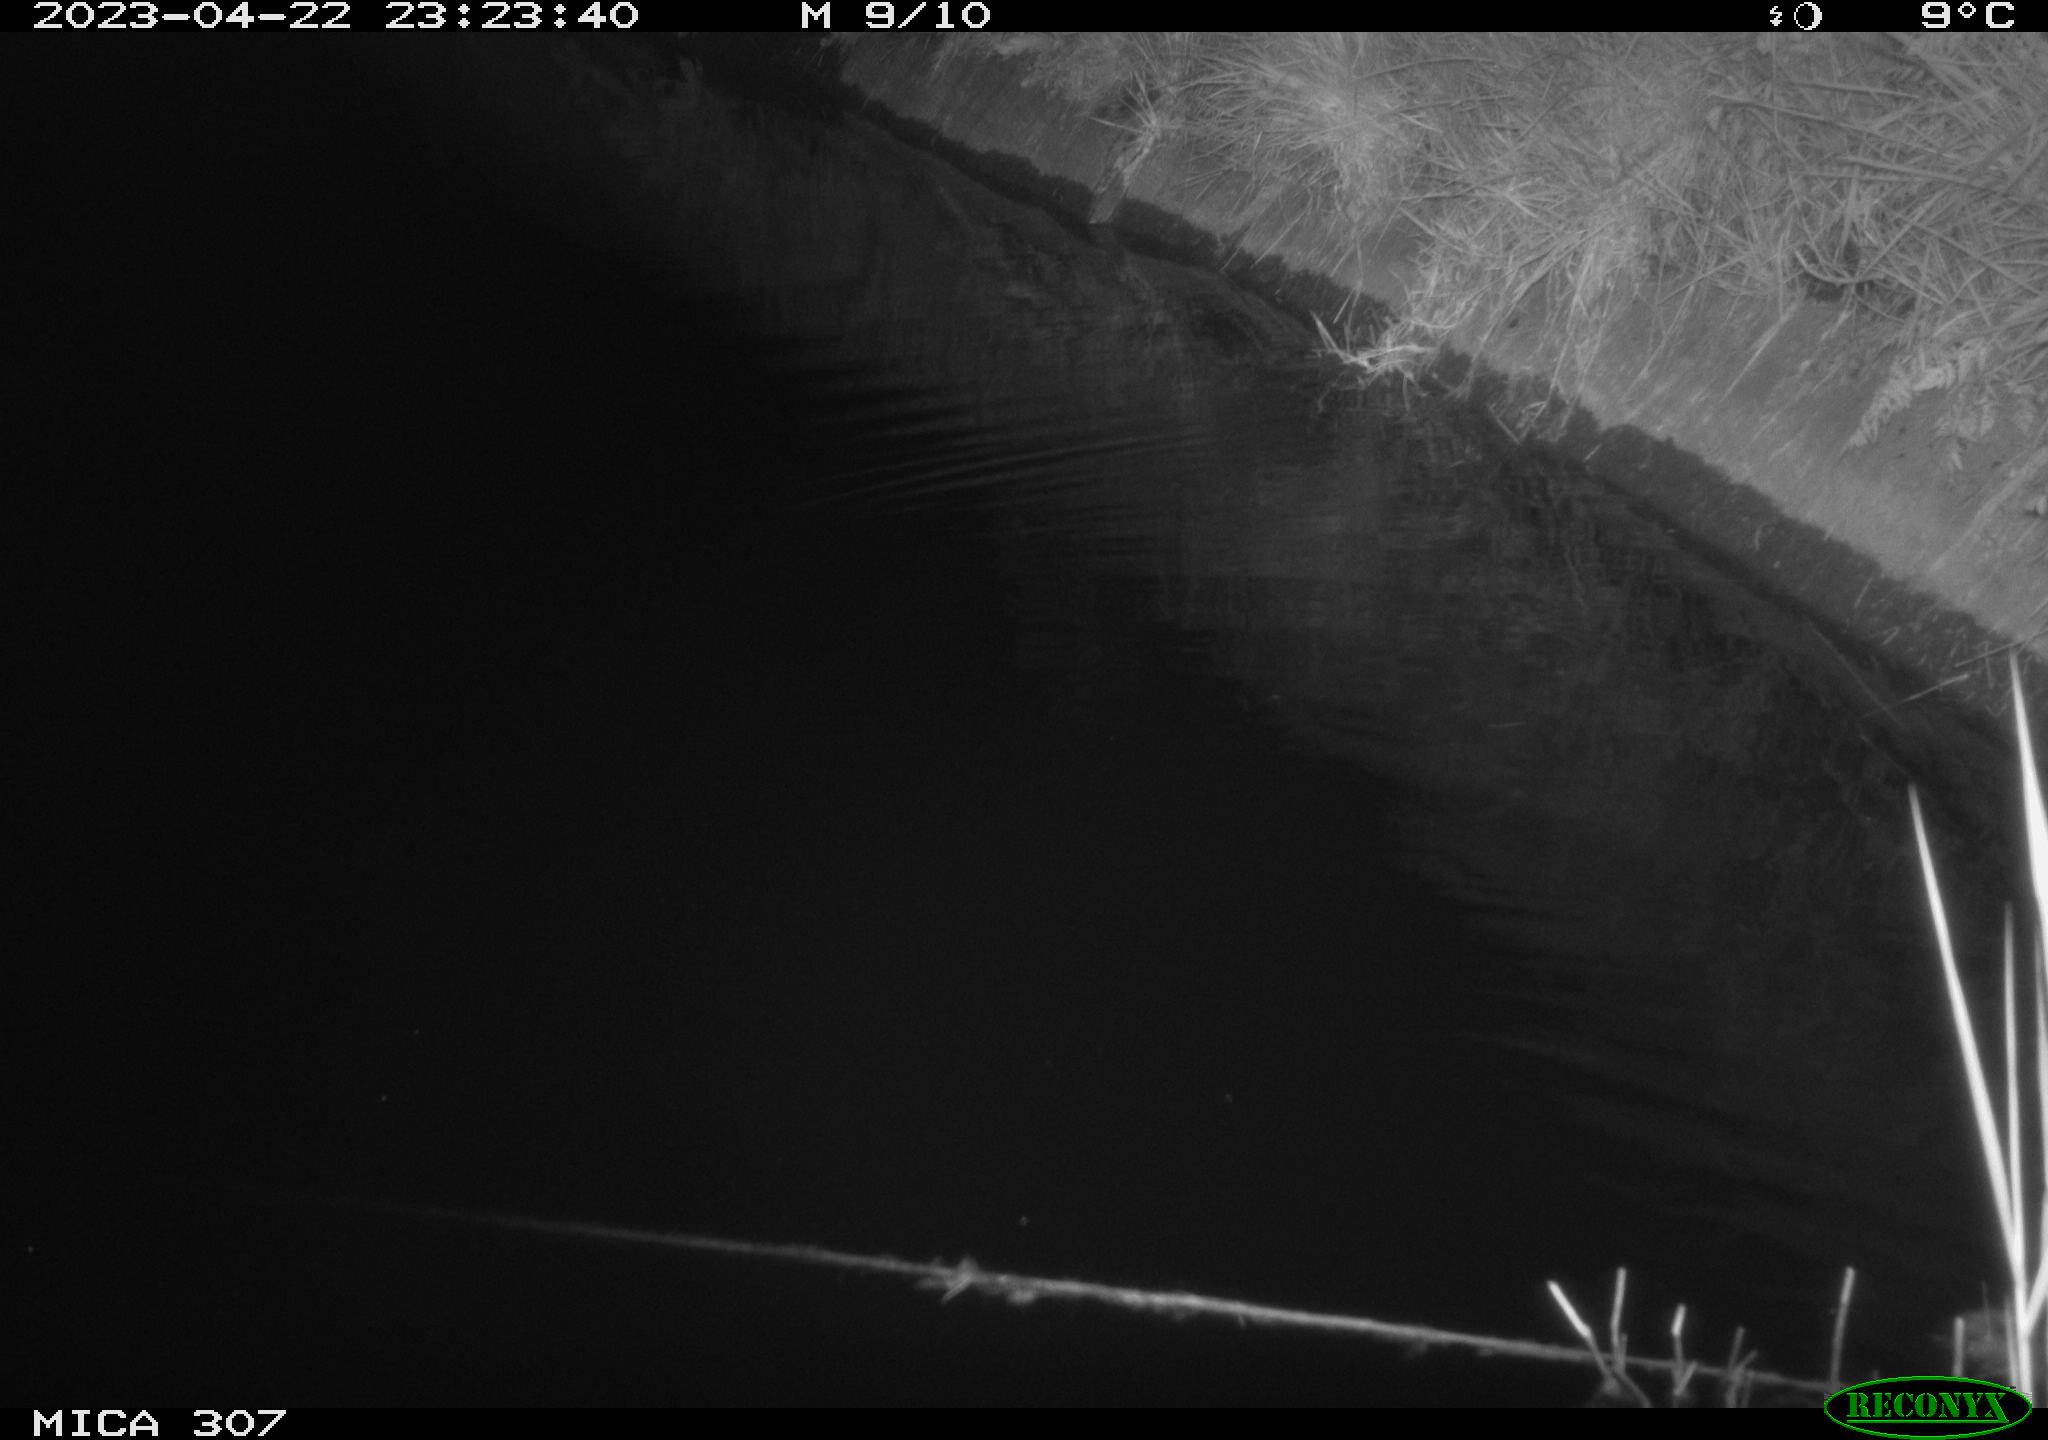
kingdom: Animalia
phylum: Chordata
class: Mammalia
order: Rodentia
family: Muridae
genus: Rattus
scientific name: Rattus norvegicus
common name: Brown rat
